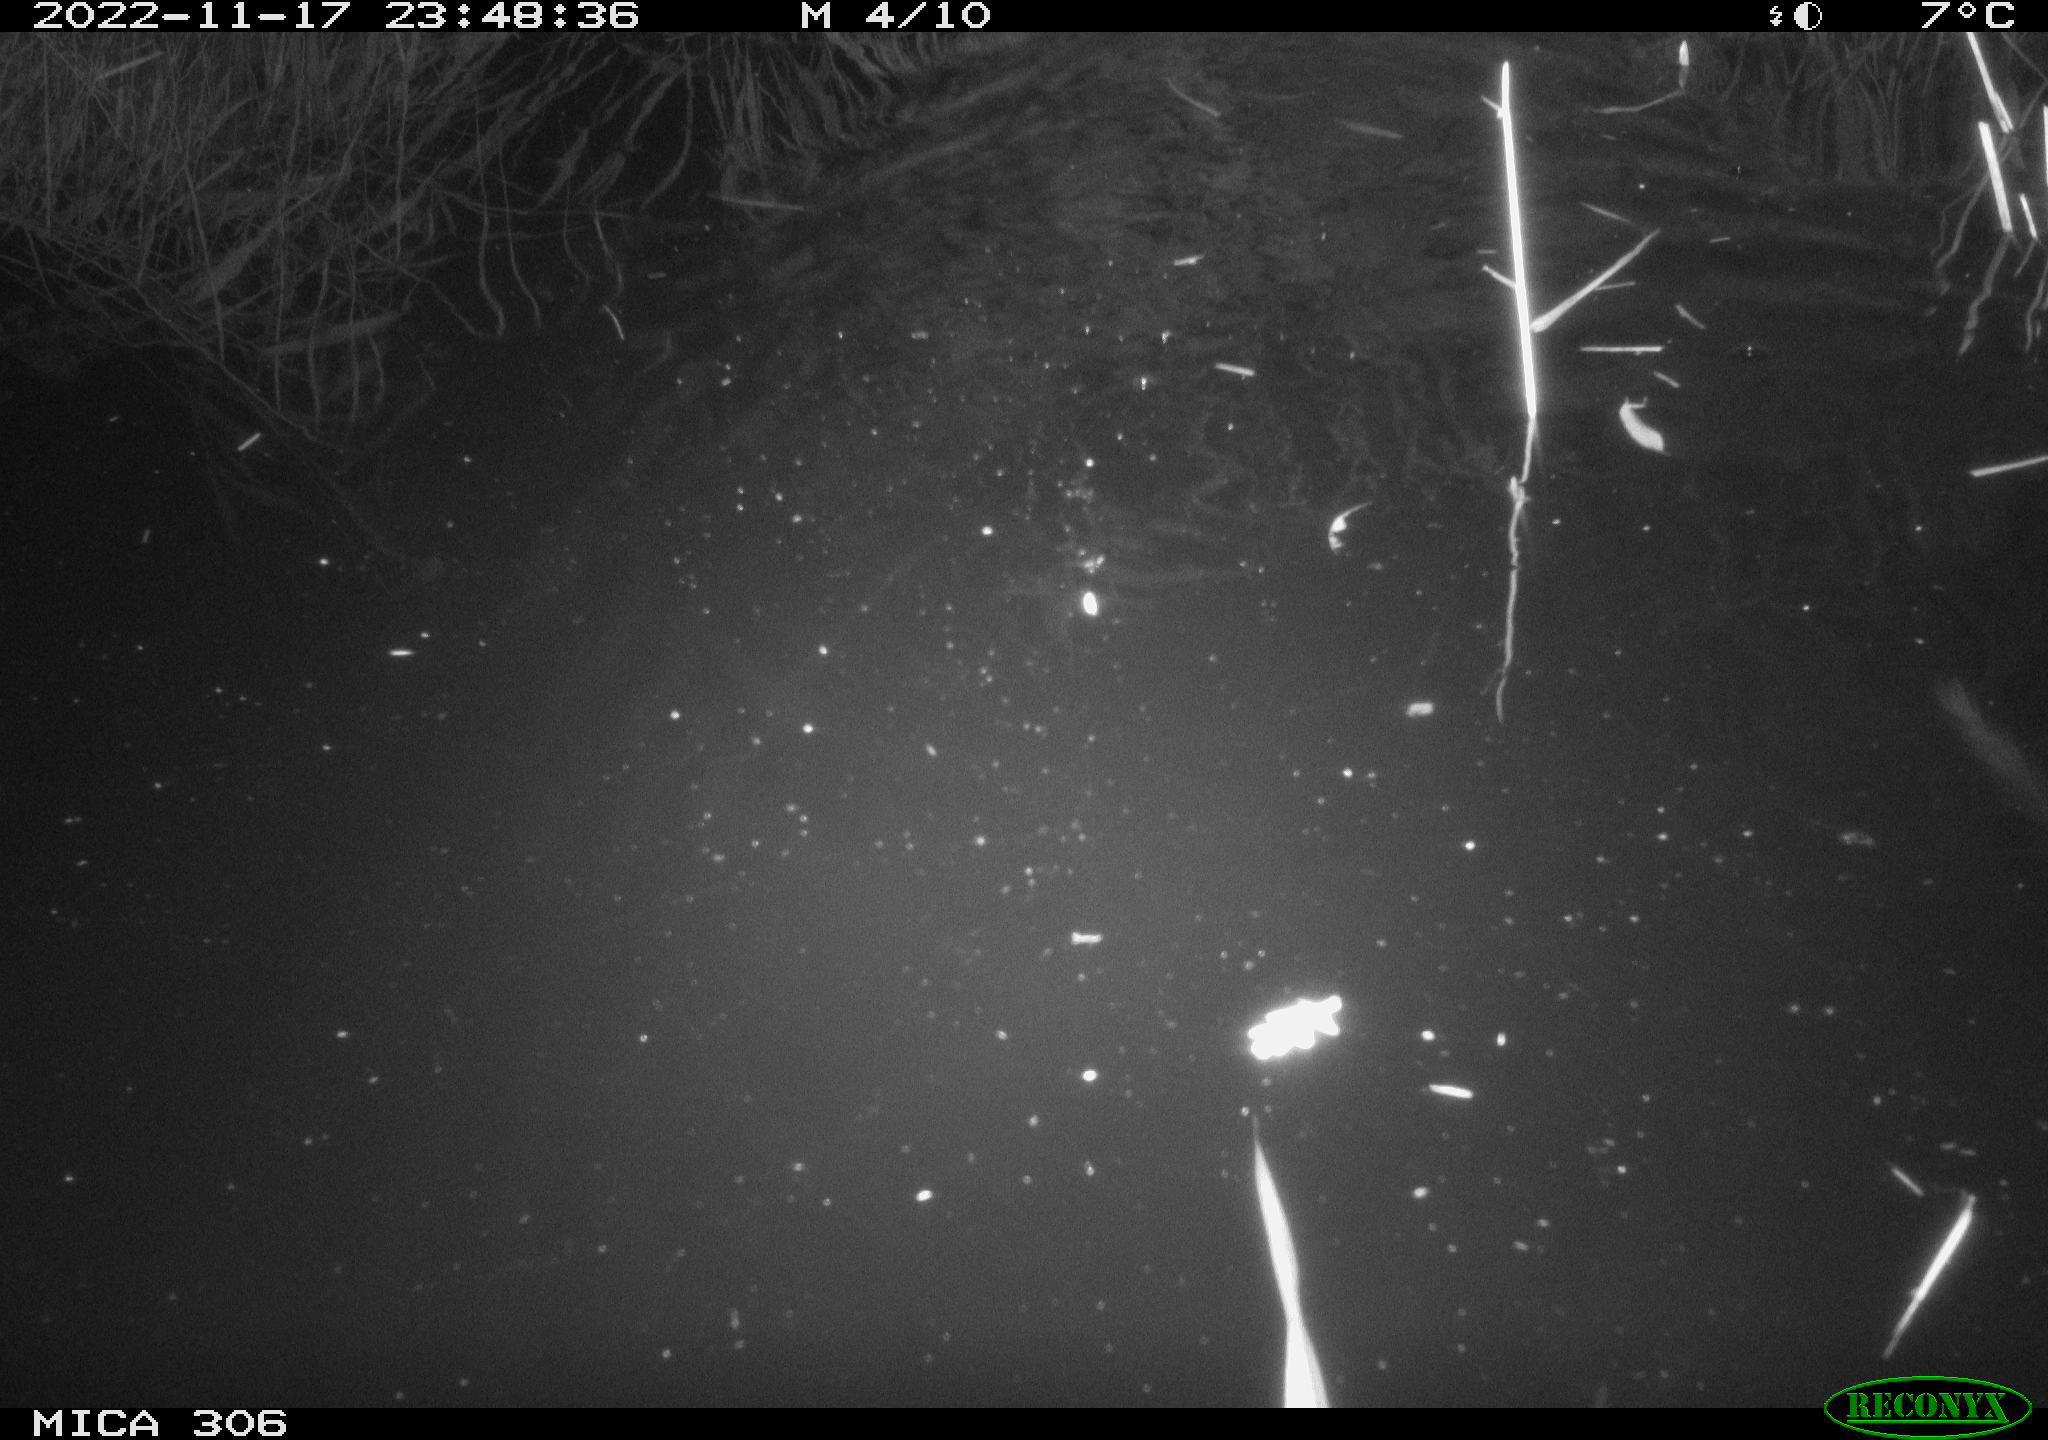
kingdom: Animalia
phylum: Chordata
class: Mammalia
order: Rodentia
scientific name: Rodentia
